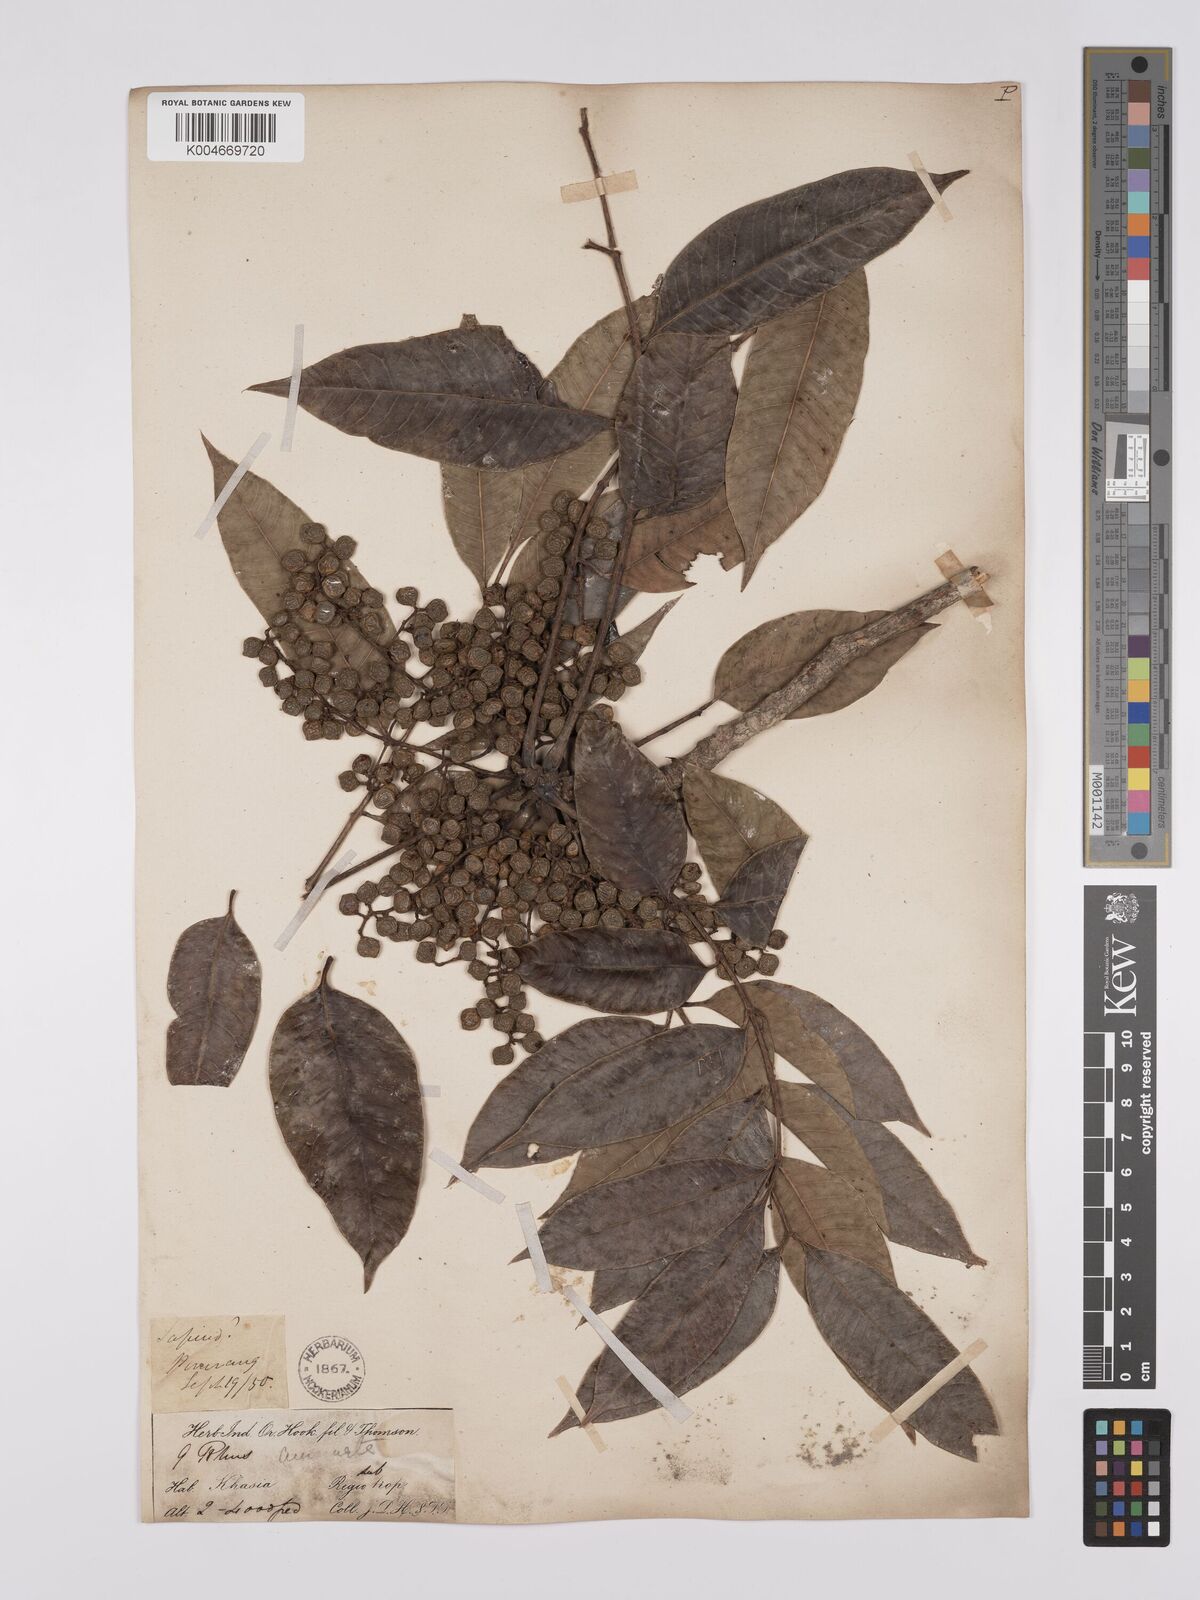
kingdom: Plantae
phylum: Tracheophyta
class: Magnoliopsida
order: Sapindales
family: Anacardiaceae
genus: Toxicodendron
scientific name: Toxicodendron succedaneum
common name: Wax tree
